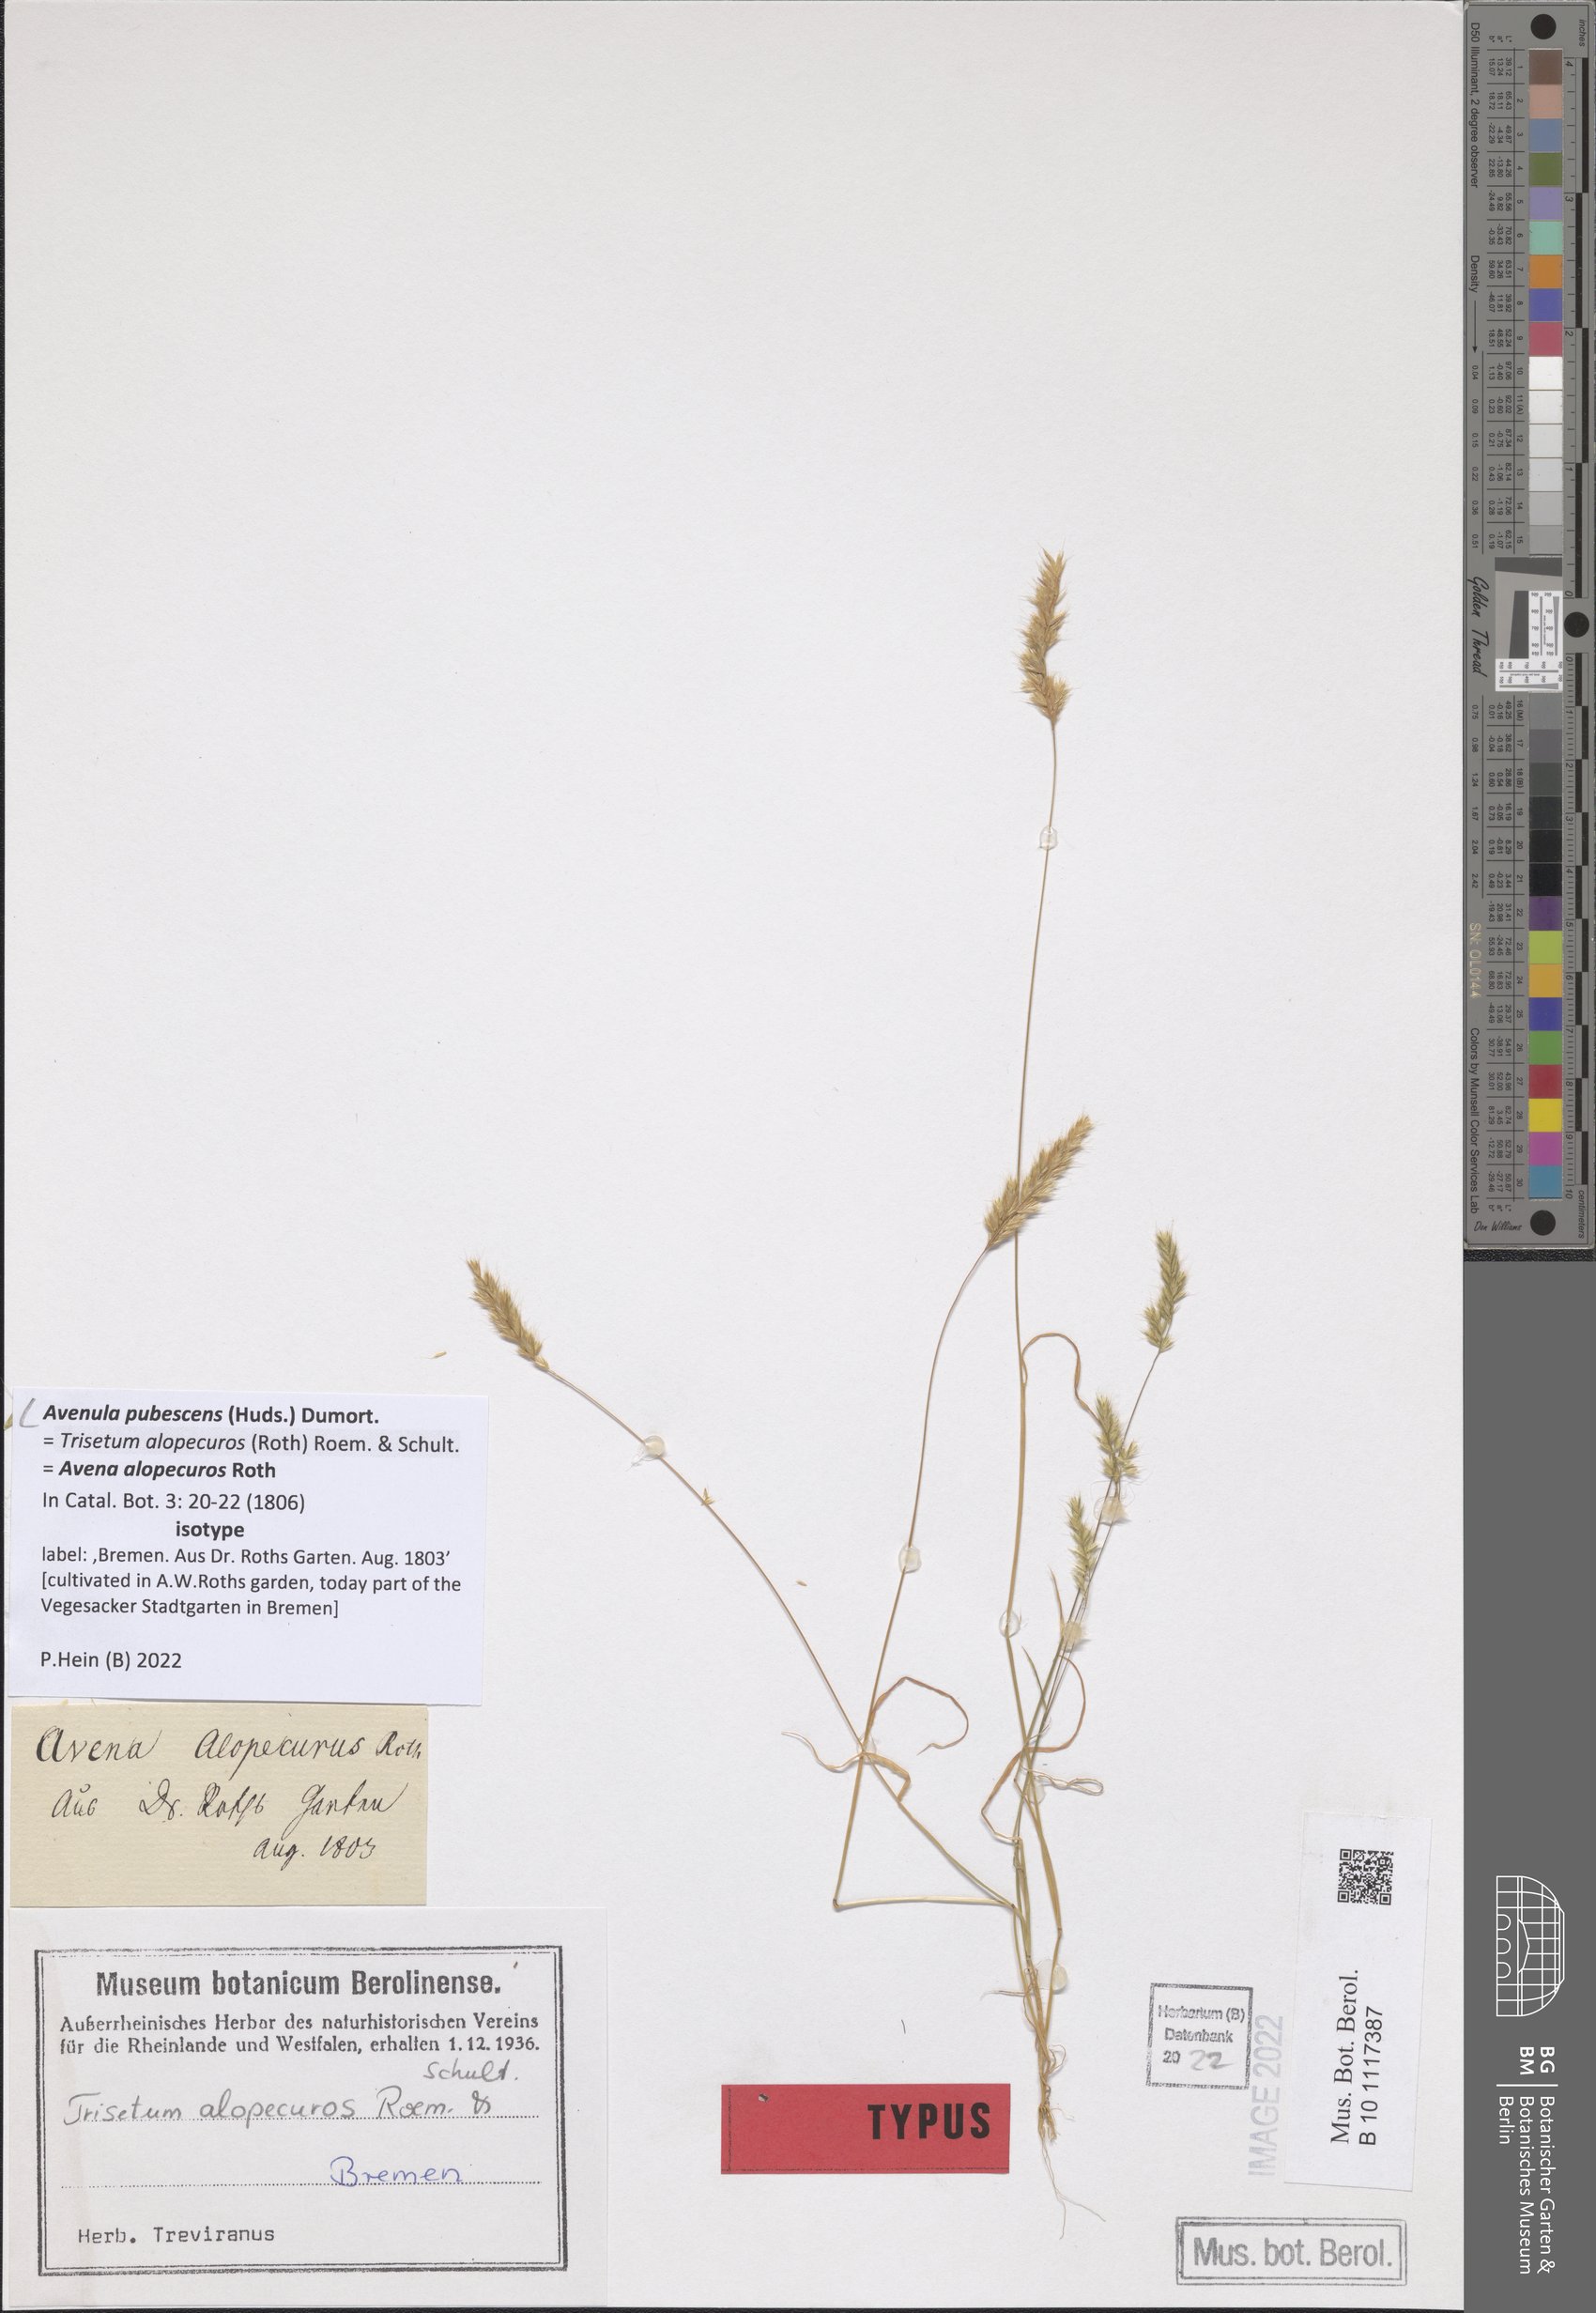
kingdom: Plantae
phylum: Tracheophyta
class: Liliopsida
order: Poales
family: Poaceae
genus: Avenula
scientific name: Avenula pubescens
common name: Downy alpine oatgrass
